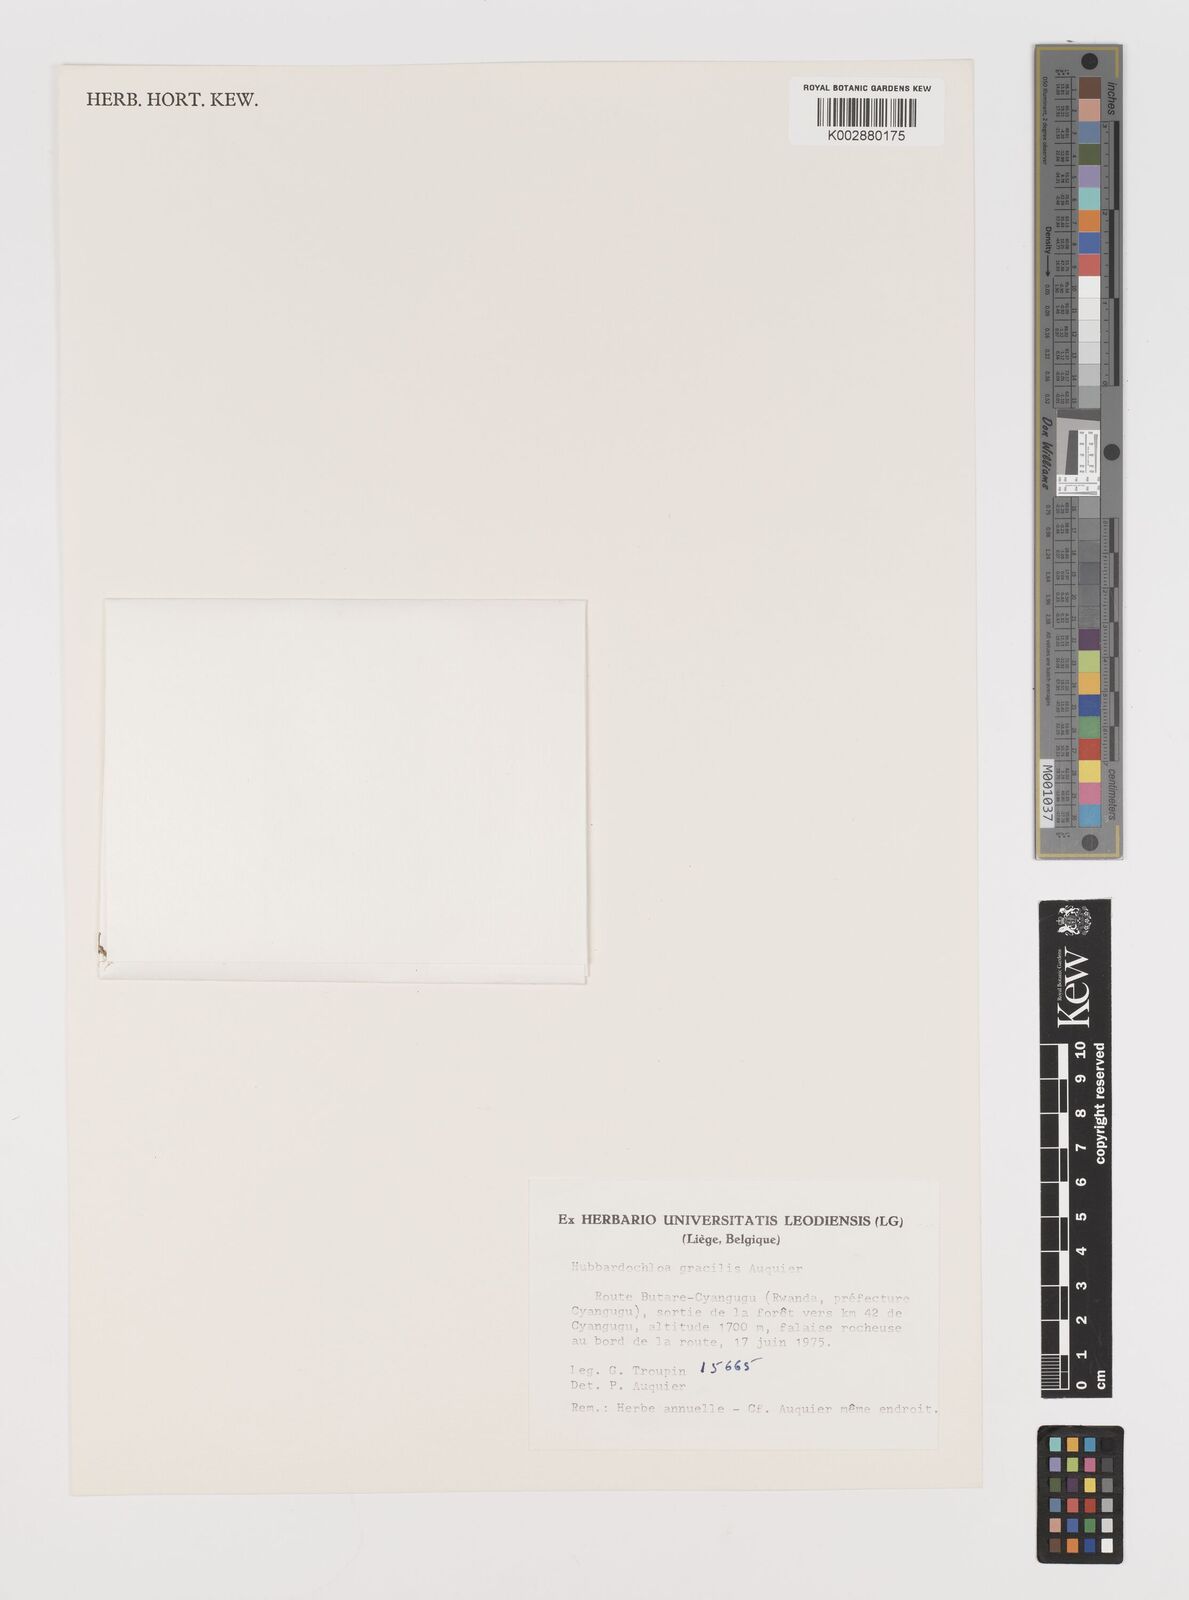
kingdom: Plantae
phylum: Tracheophyta
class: Liliopsida
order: Poales
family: Poaceae
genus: Hubbardochloa
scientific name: Hubbardochloa gracilis
